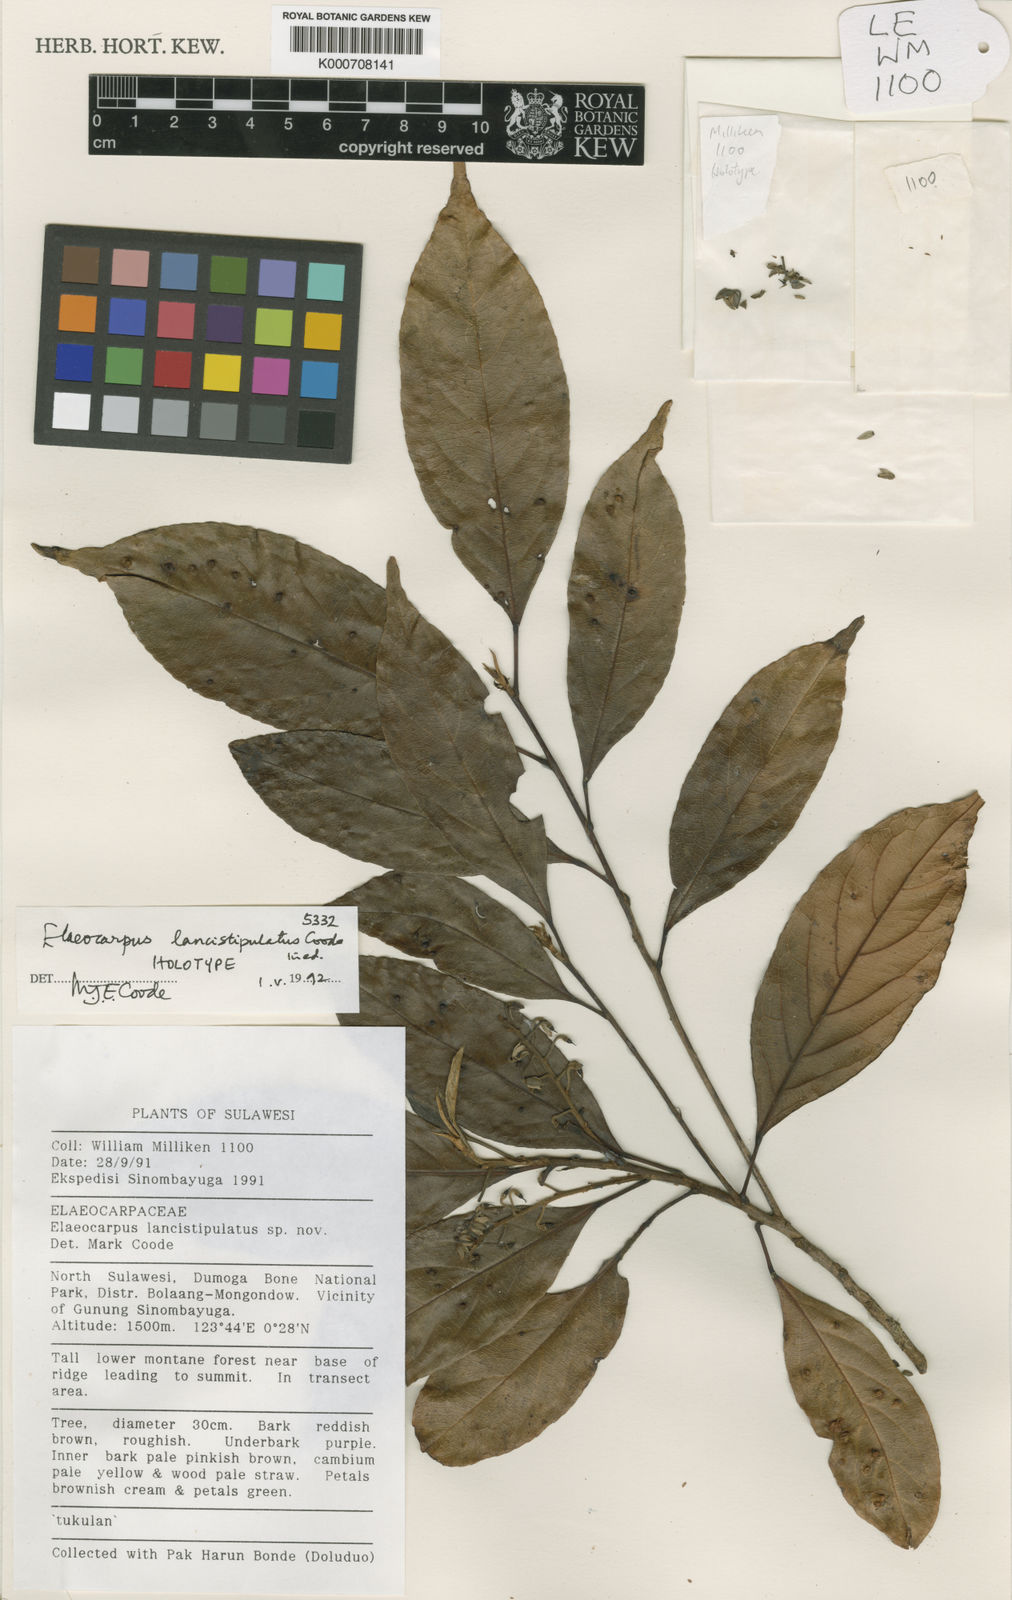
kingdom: Plantae
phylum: Tracheophyta
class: Magnoliopsida
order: Oxalidales
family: Elaeocarpaceae
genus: Elaeocarpus
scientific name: Elaeocarpus lancistipulatus
